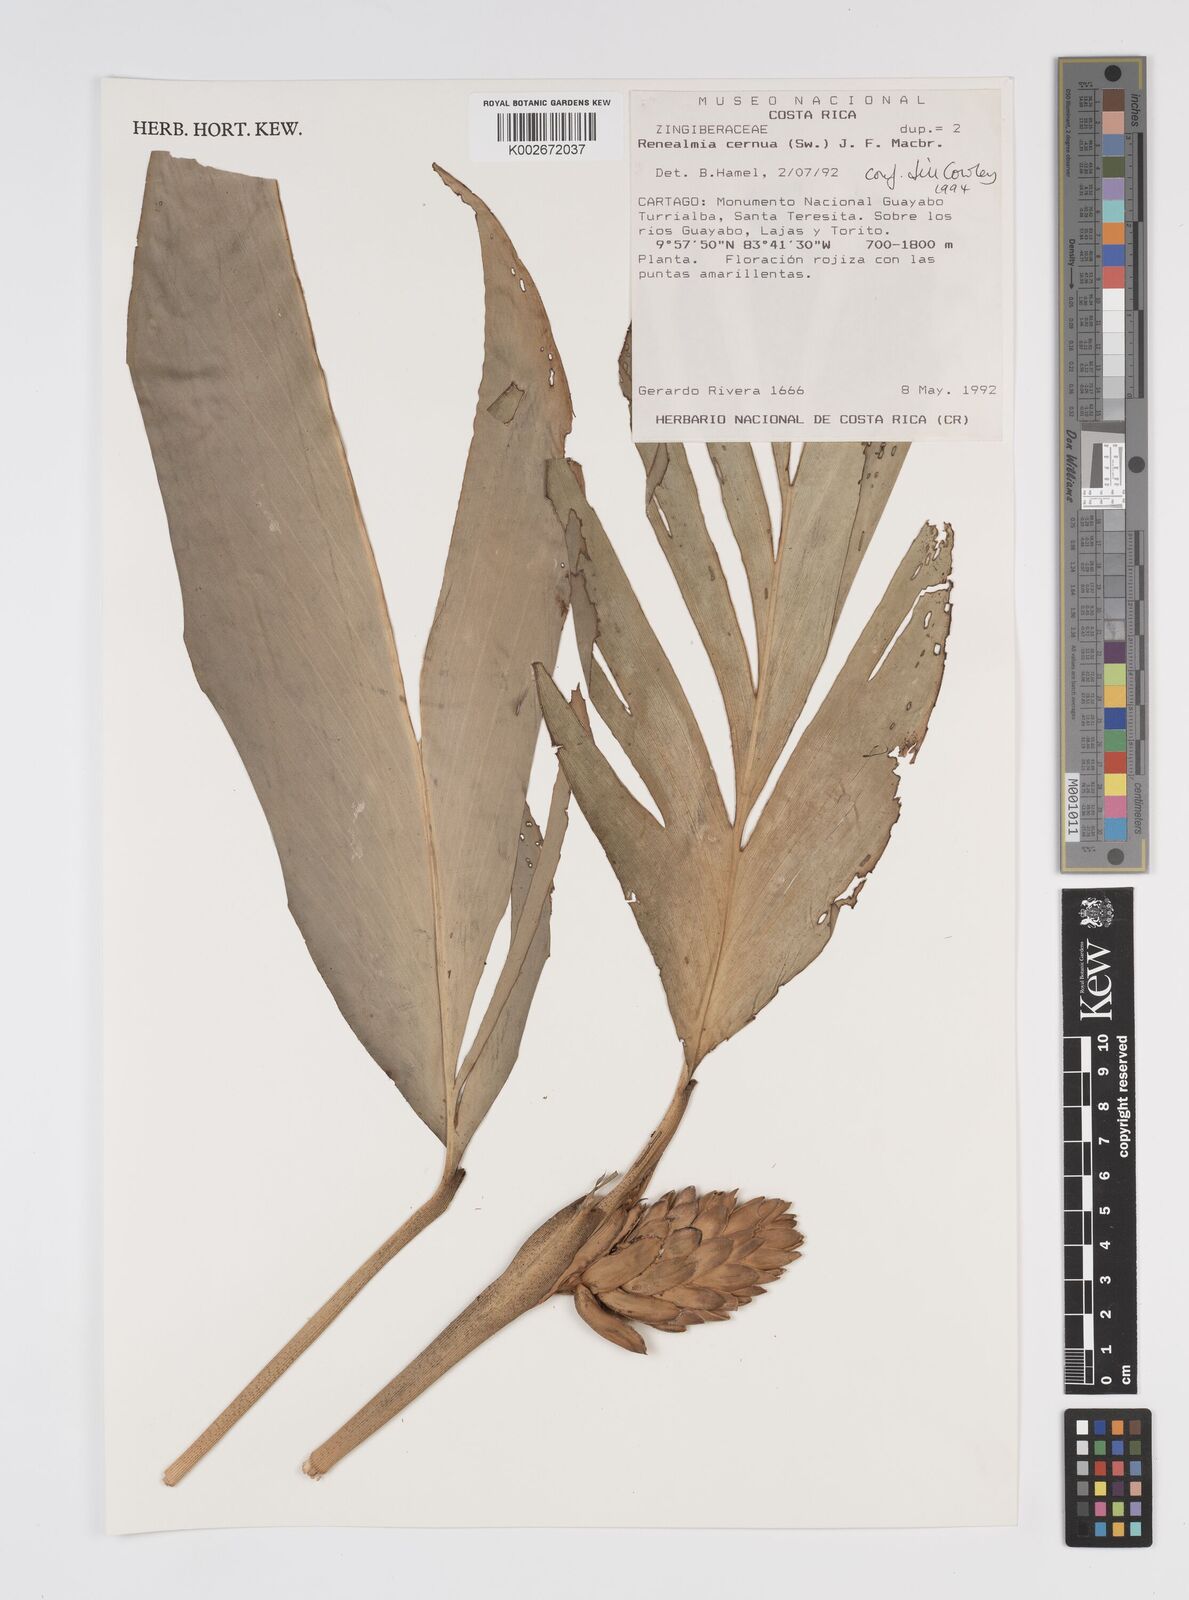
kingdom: Plantae
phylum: Tracheophyta
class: Liliopsida
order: Zingiberales
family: Zingiberaceae
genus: Renealmia
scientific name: Renealmia cernua
